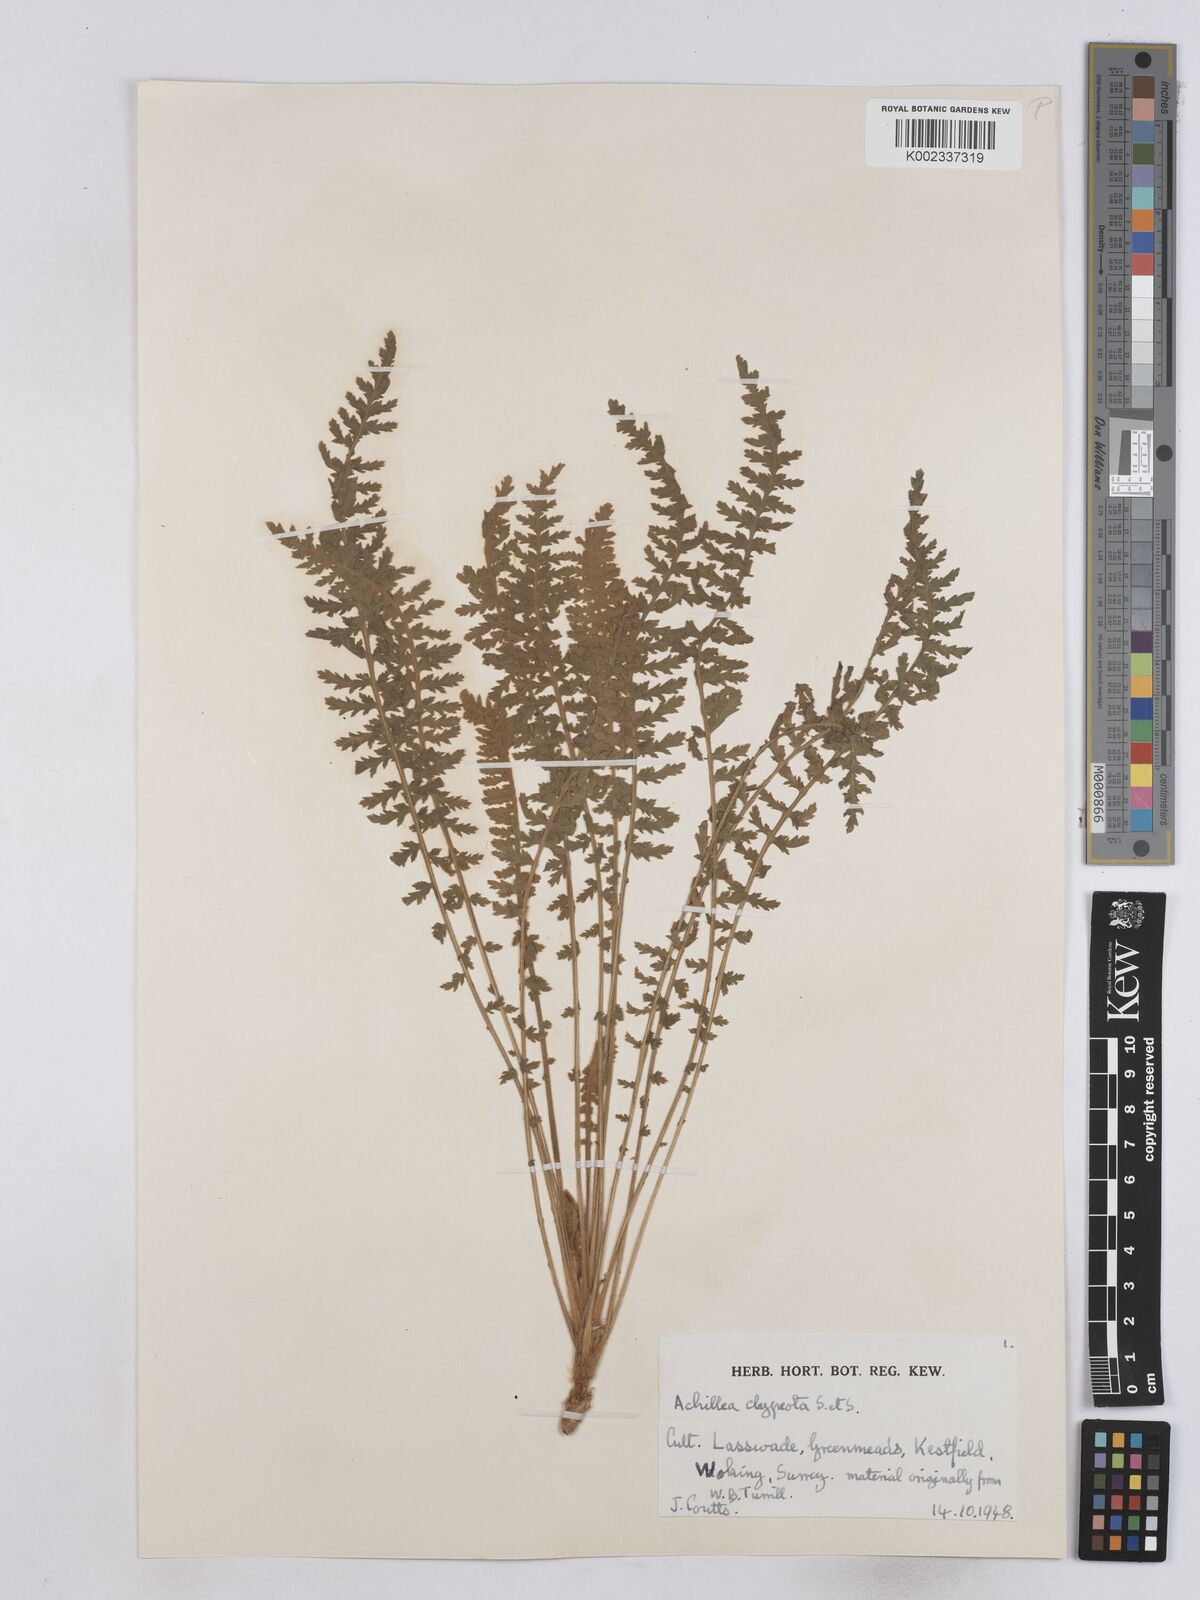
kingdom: Plantae
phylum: Tracheophyta
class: Magnoliopsida
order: Asterales
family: Asteraceae
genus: Achillea
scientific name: Achillea clypeolata
